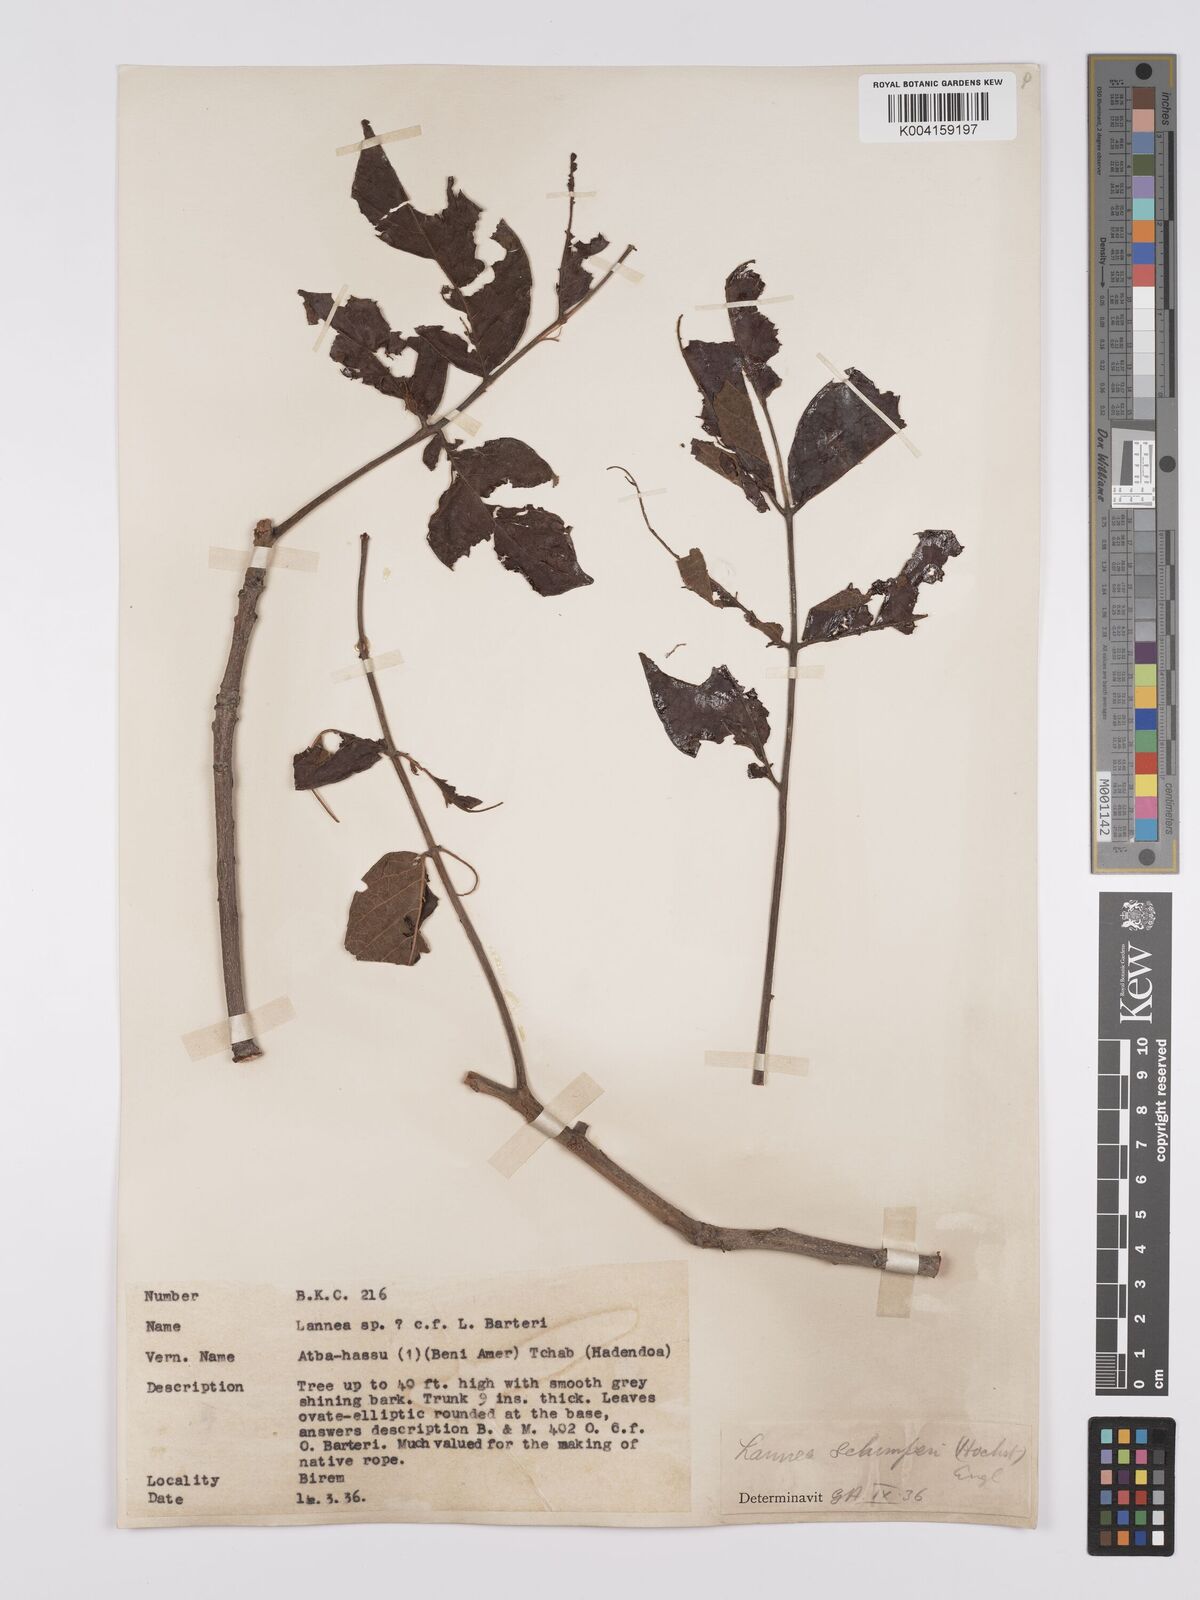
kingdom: Plantae
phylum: Tracheophyta
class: Magnoliopsida
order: Sapindales
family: Anacardiaceae
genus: Lannea
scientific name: Lannea schimperi
